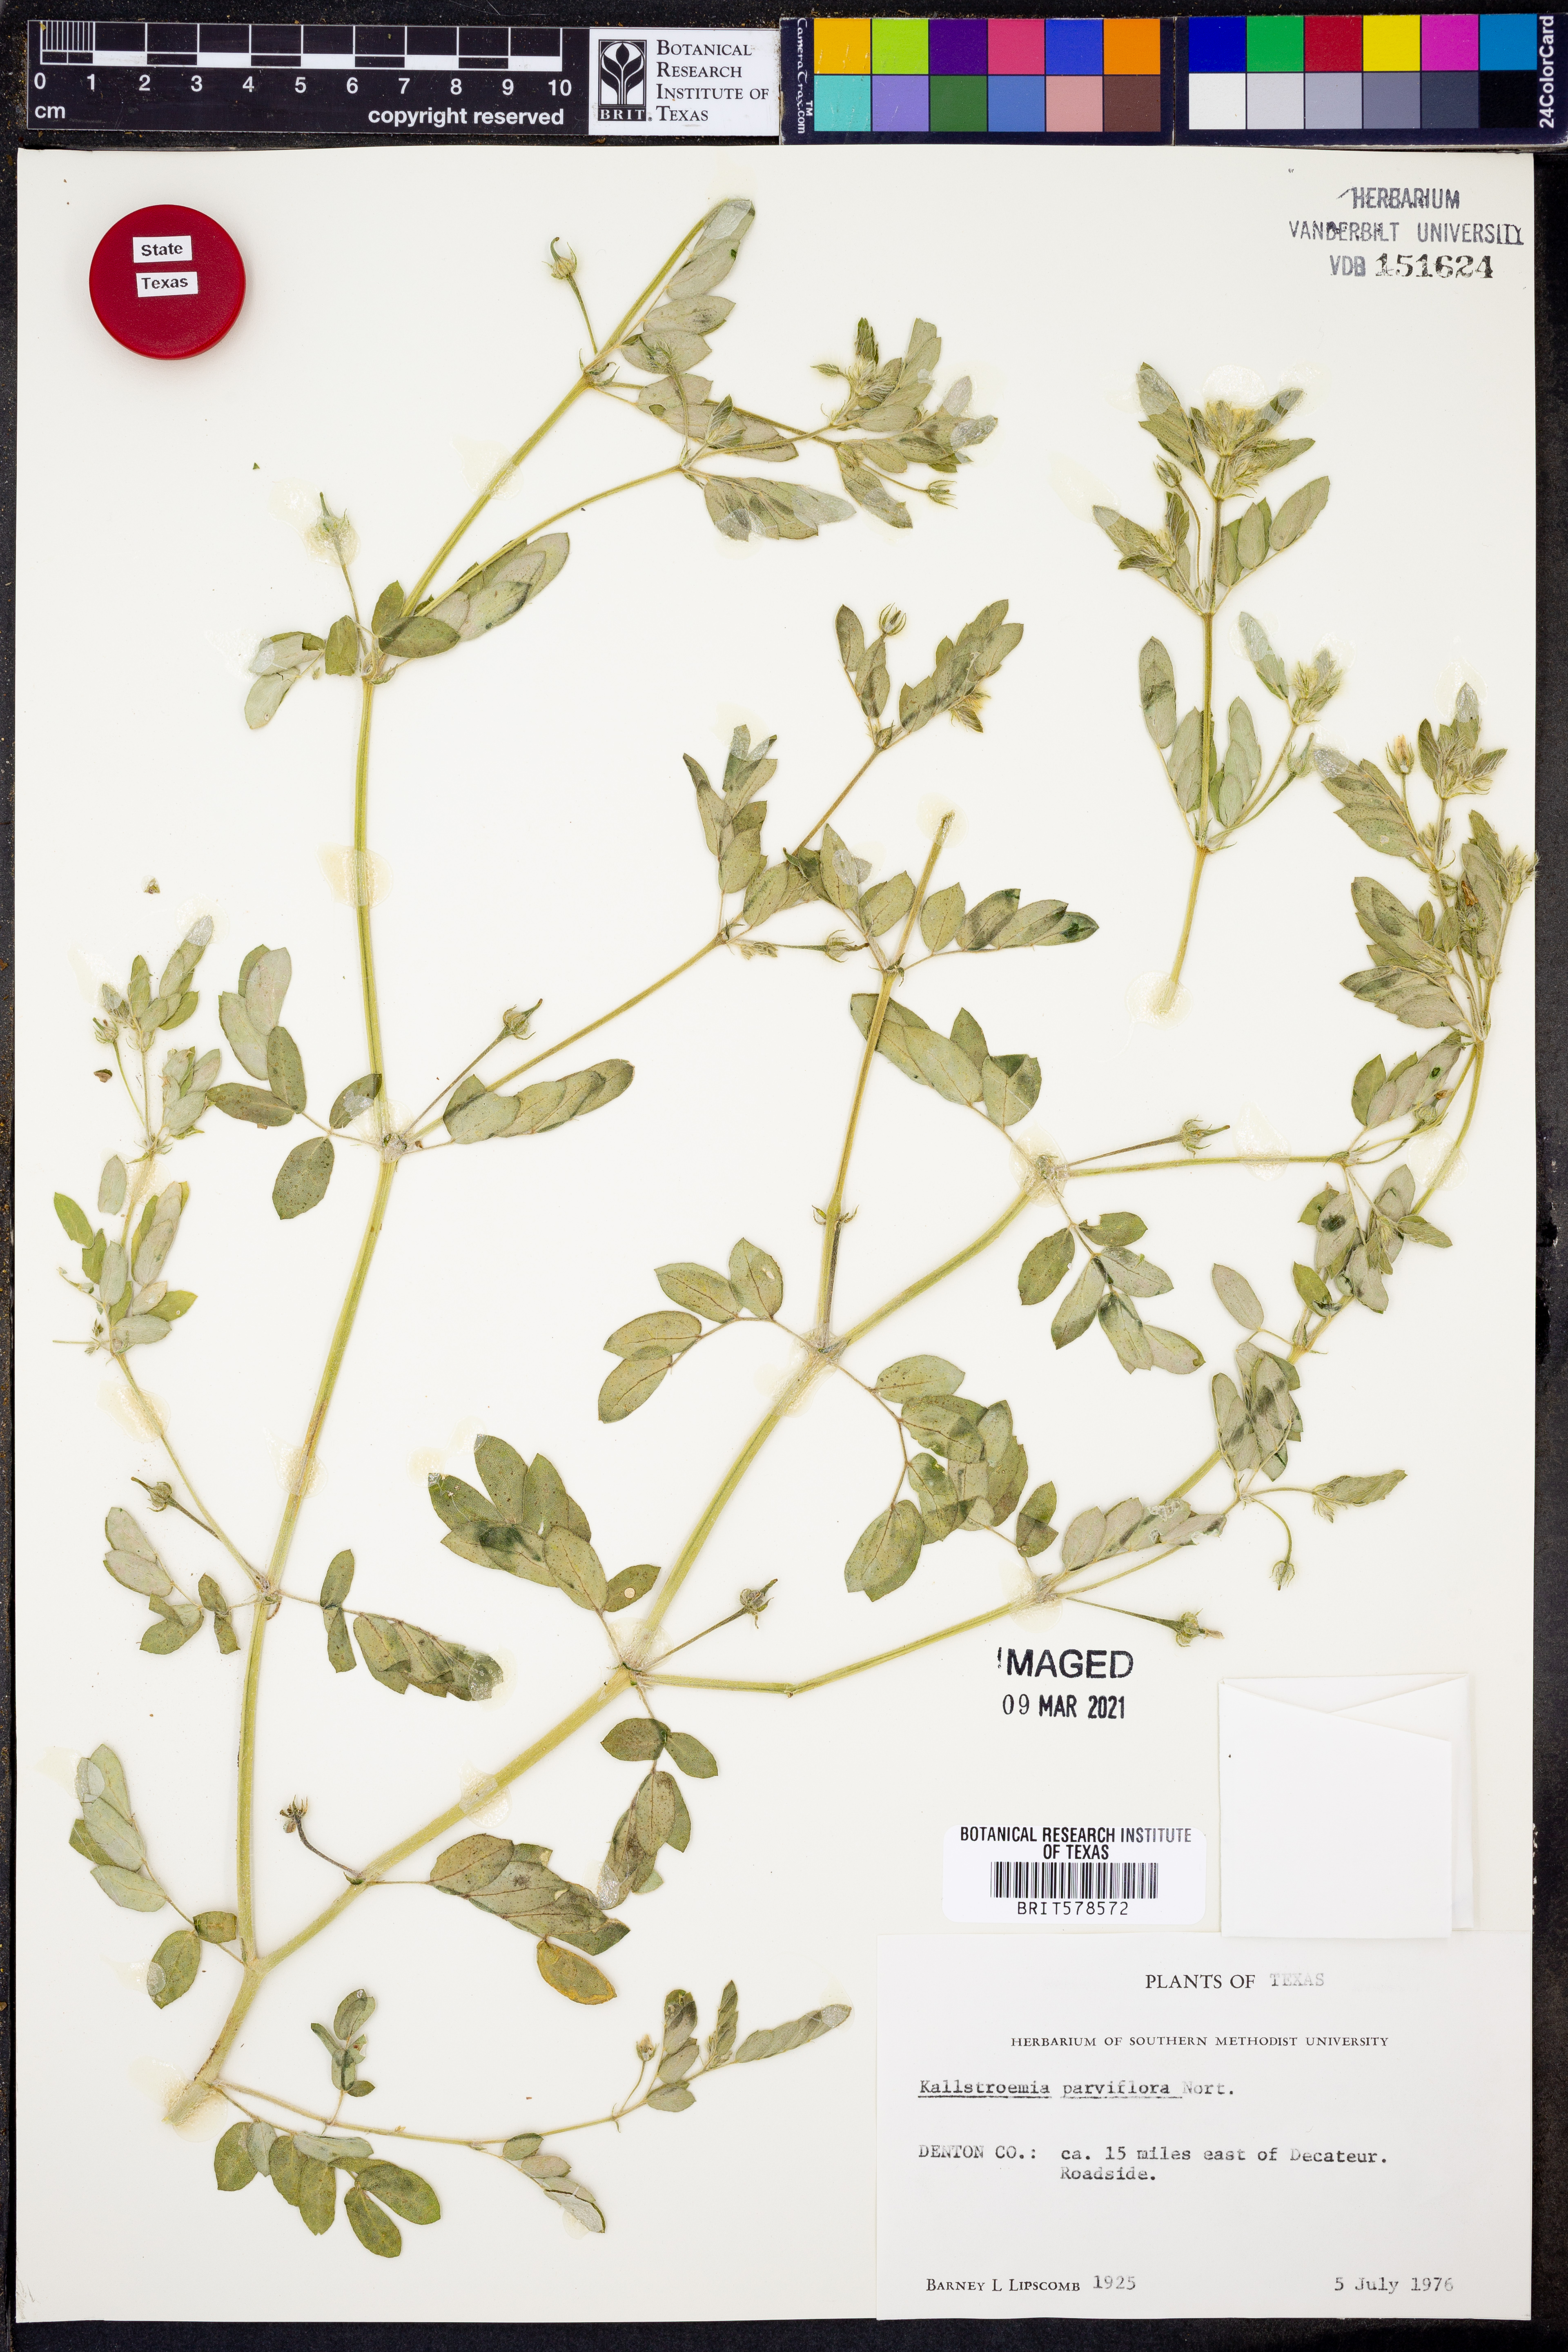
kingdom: Plantae
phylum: Tracheophyta
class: Magnoliopsida
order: Zygophyllales
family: Zygophyllaceae
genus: Kallstroemia
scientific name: Kallstroemia parviflora
